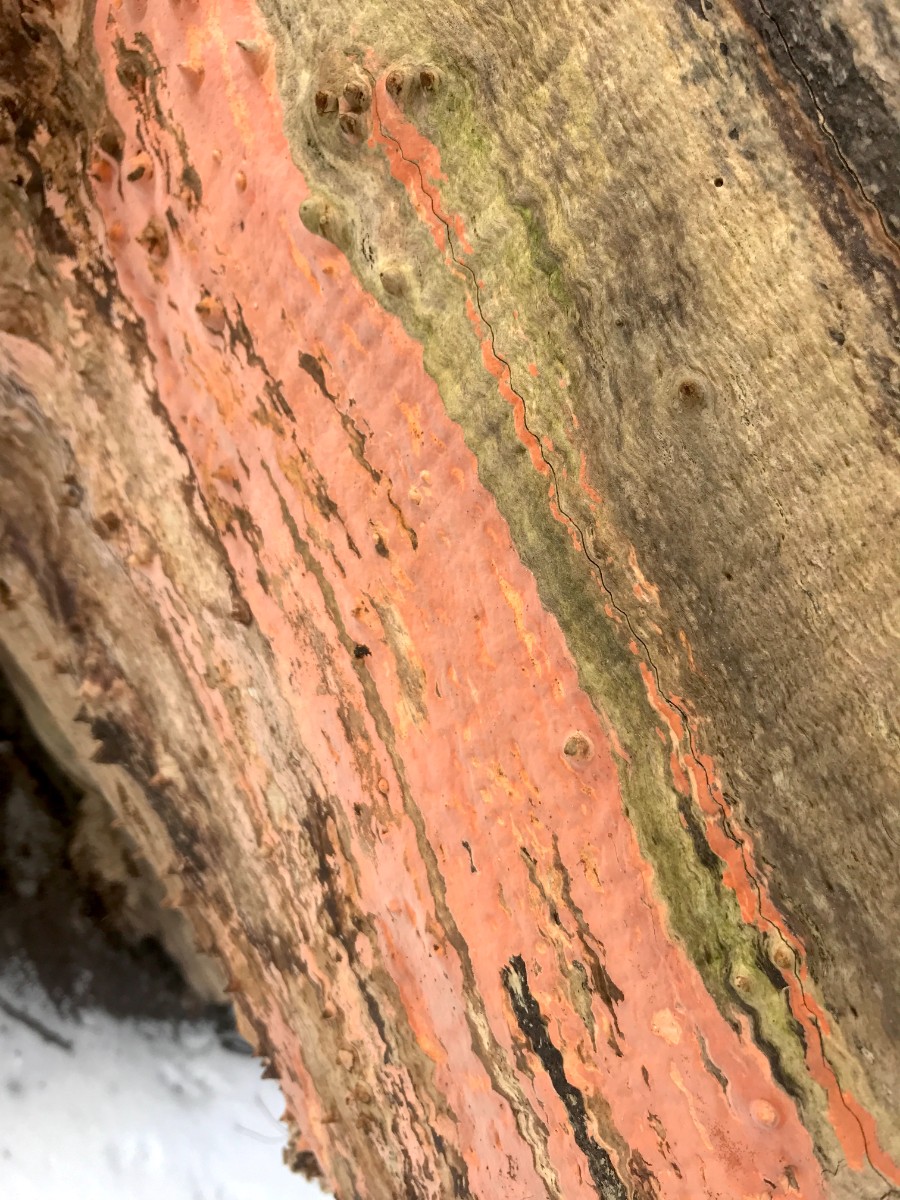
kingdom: Fungi
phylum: Basidiomycota
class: Agaricomycetes
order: Russulales
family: Peniophoraceae
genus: Peniophora
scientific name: Peniophora incarnata
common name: laksefarvet voksskind
